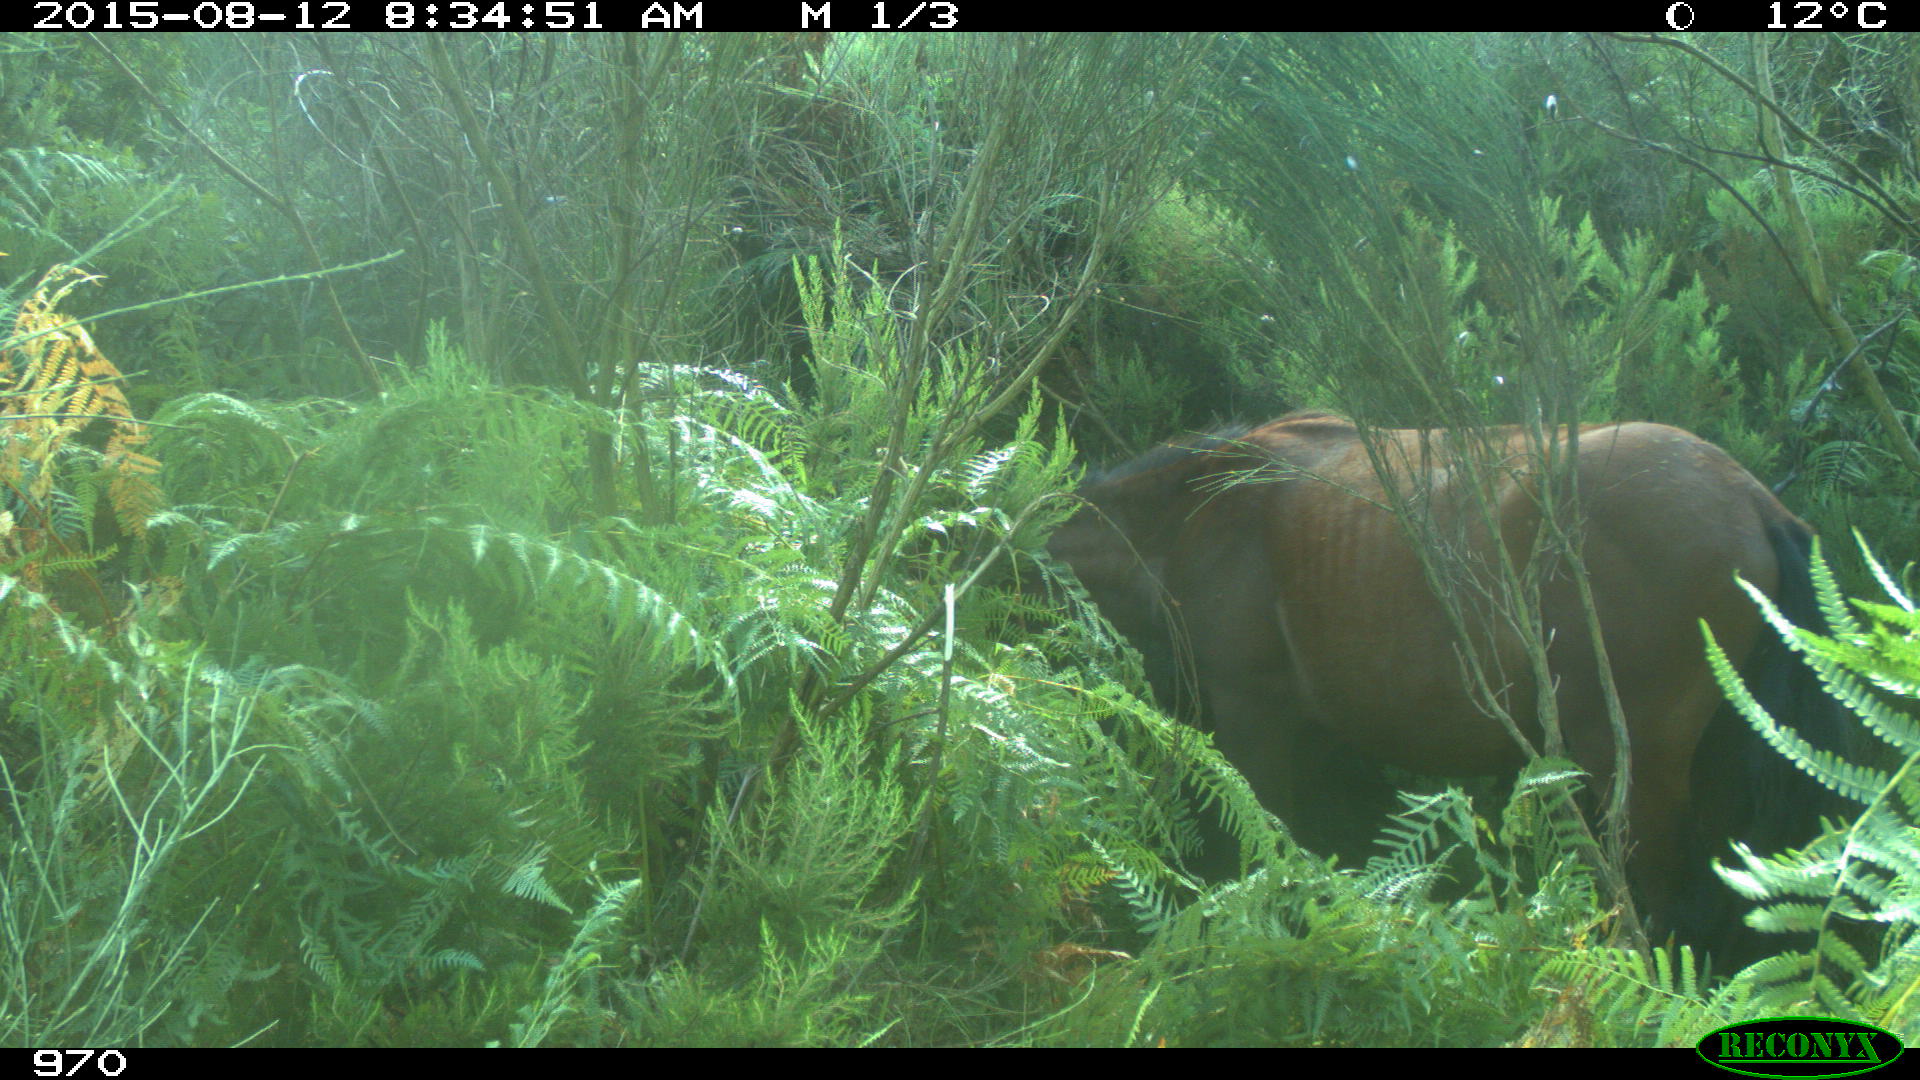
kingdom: Animalia
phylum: Chordata
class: Mammalia
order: Perissodactyla
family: Equidae
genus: Equus
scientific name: Equus caballus
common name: Horse
